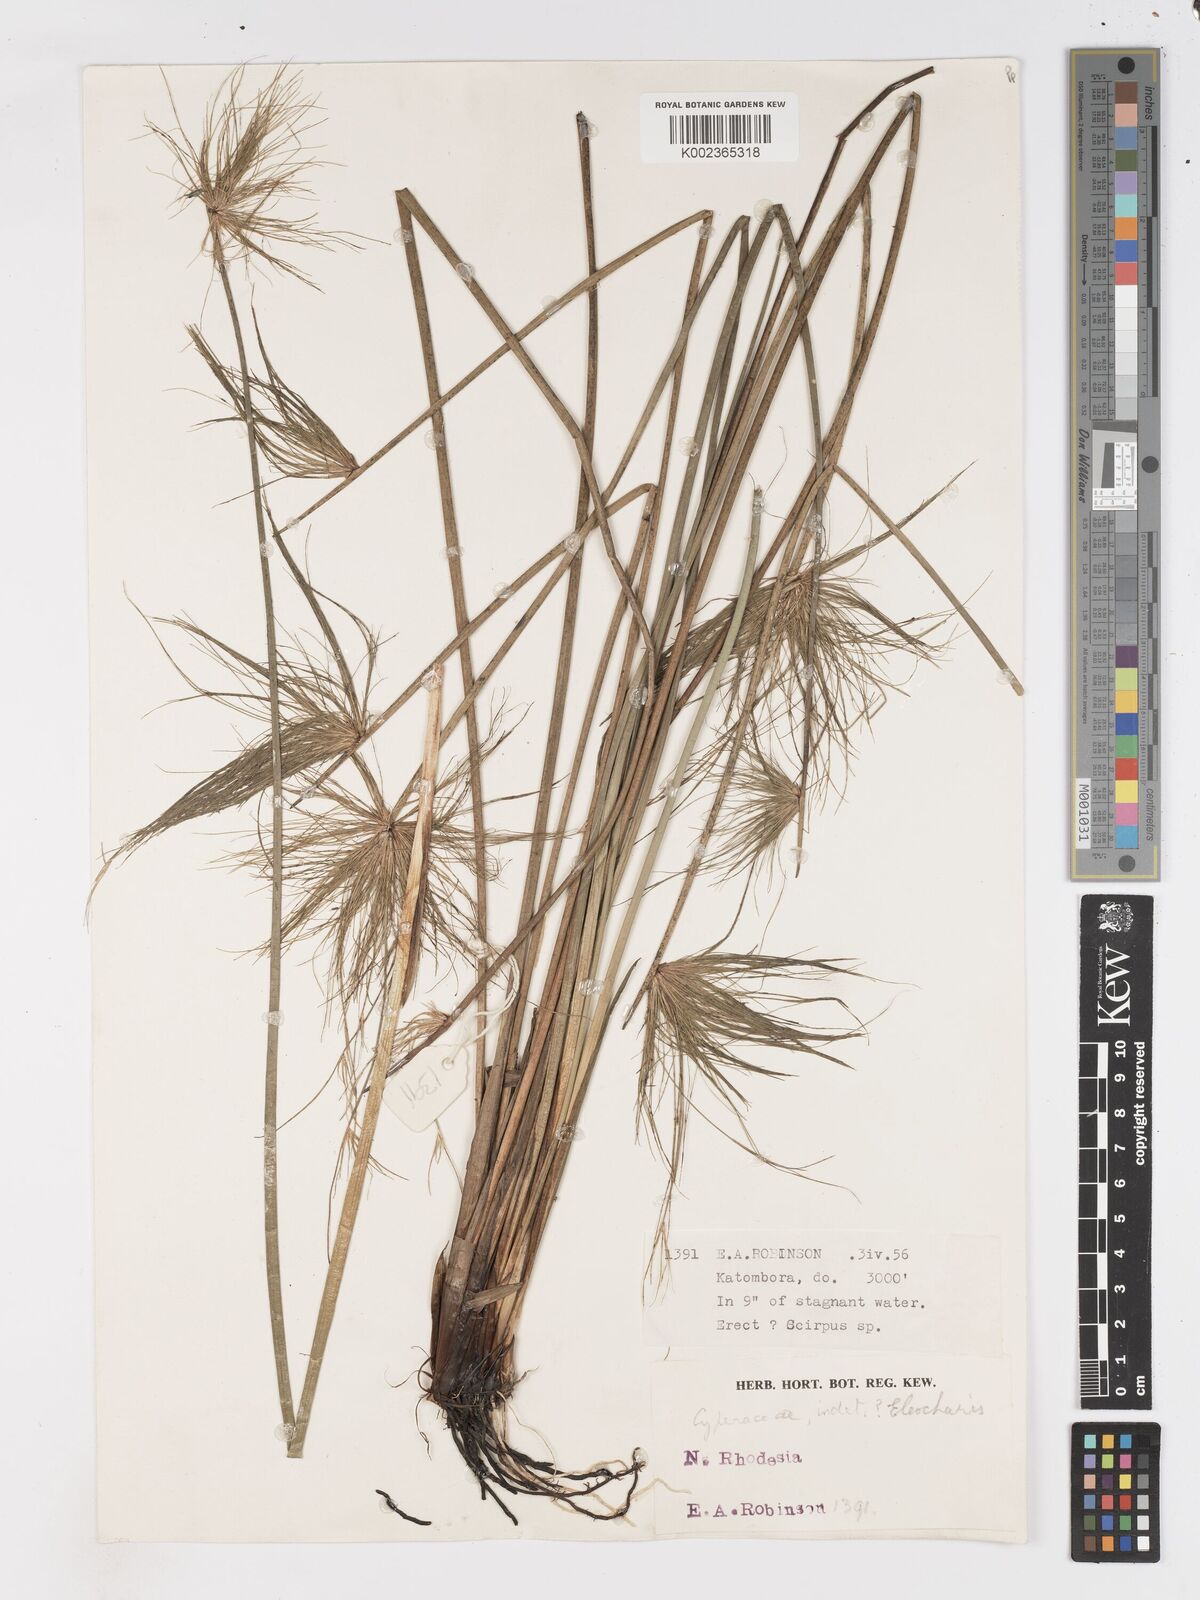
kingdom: Plantae
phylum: Tracheophyta
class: Liliopsida
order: Poales
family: Cyperaceae
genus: Schoenoplectus
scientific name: Schoenoplectus
